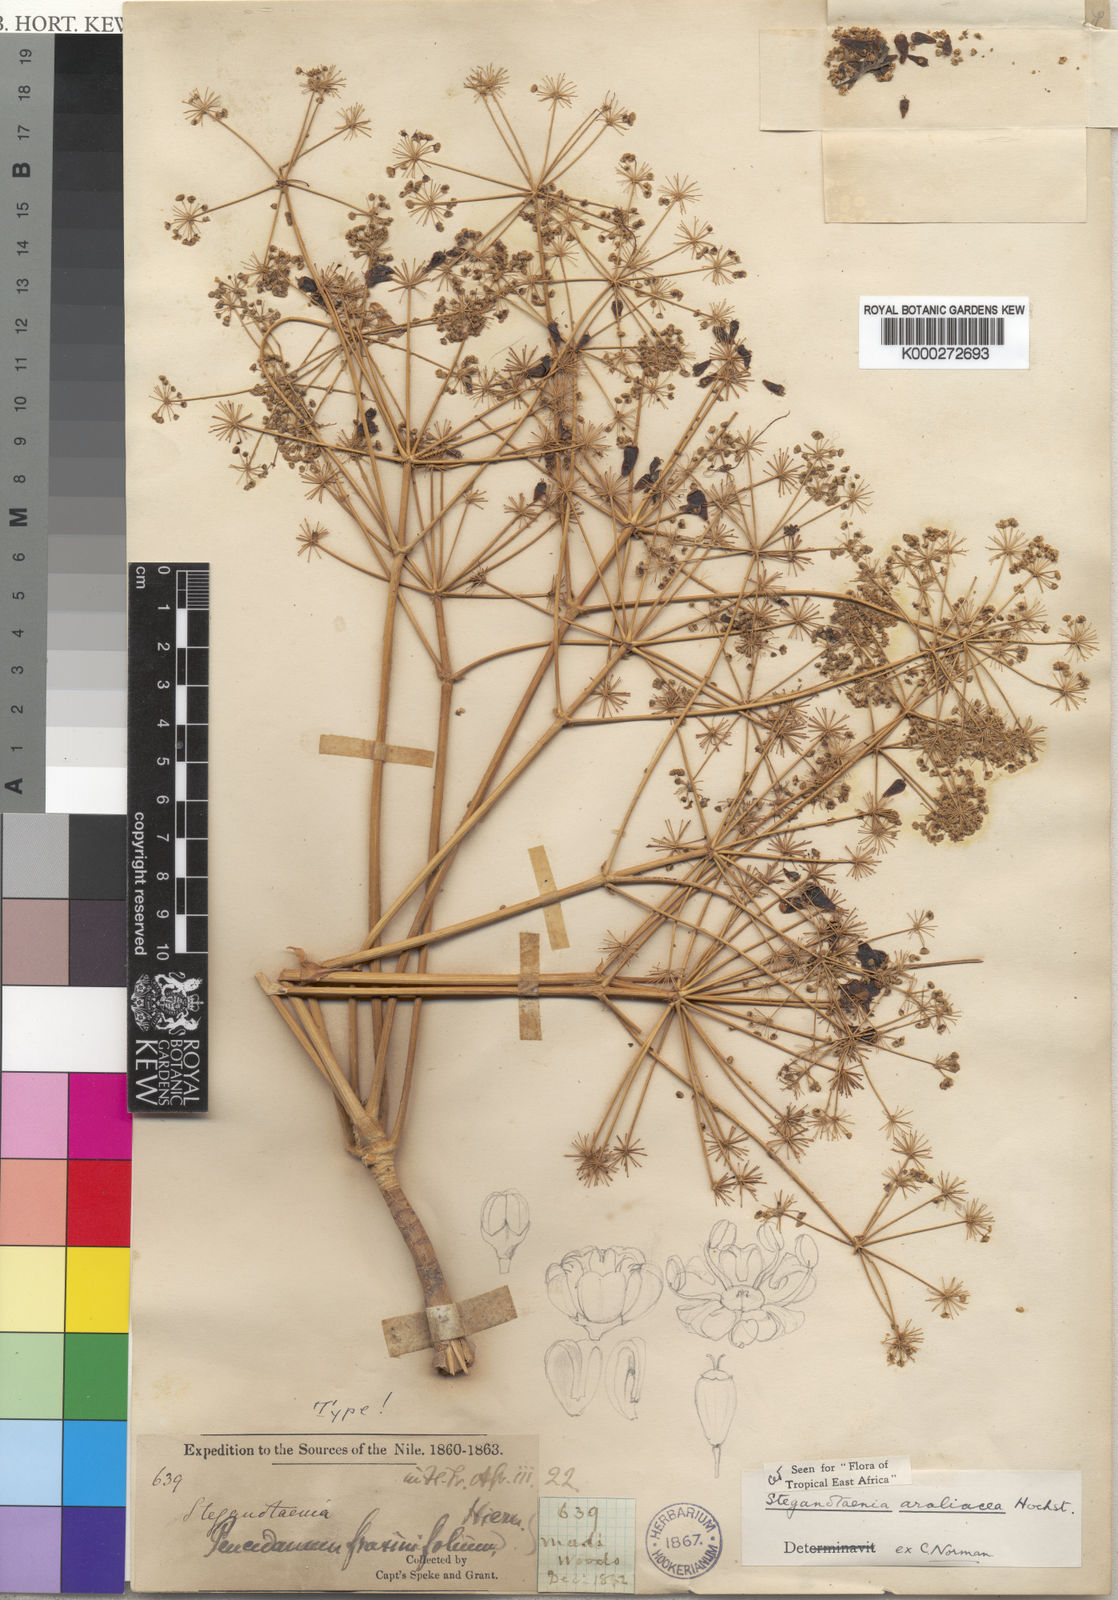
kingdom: Plantae
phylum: Tracheophyta
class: Magnoliopsida
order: Apiales
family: Apiaceae
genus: Steganotaenia
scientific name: Steganotaenia araliacea
